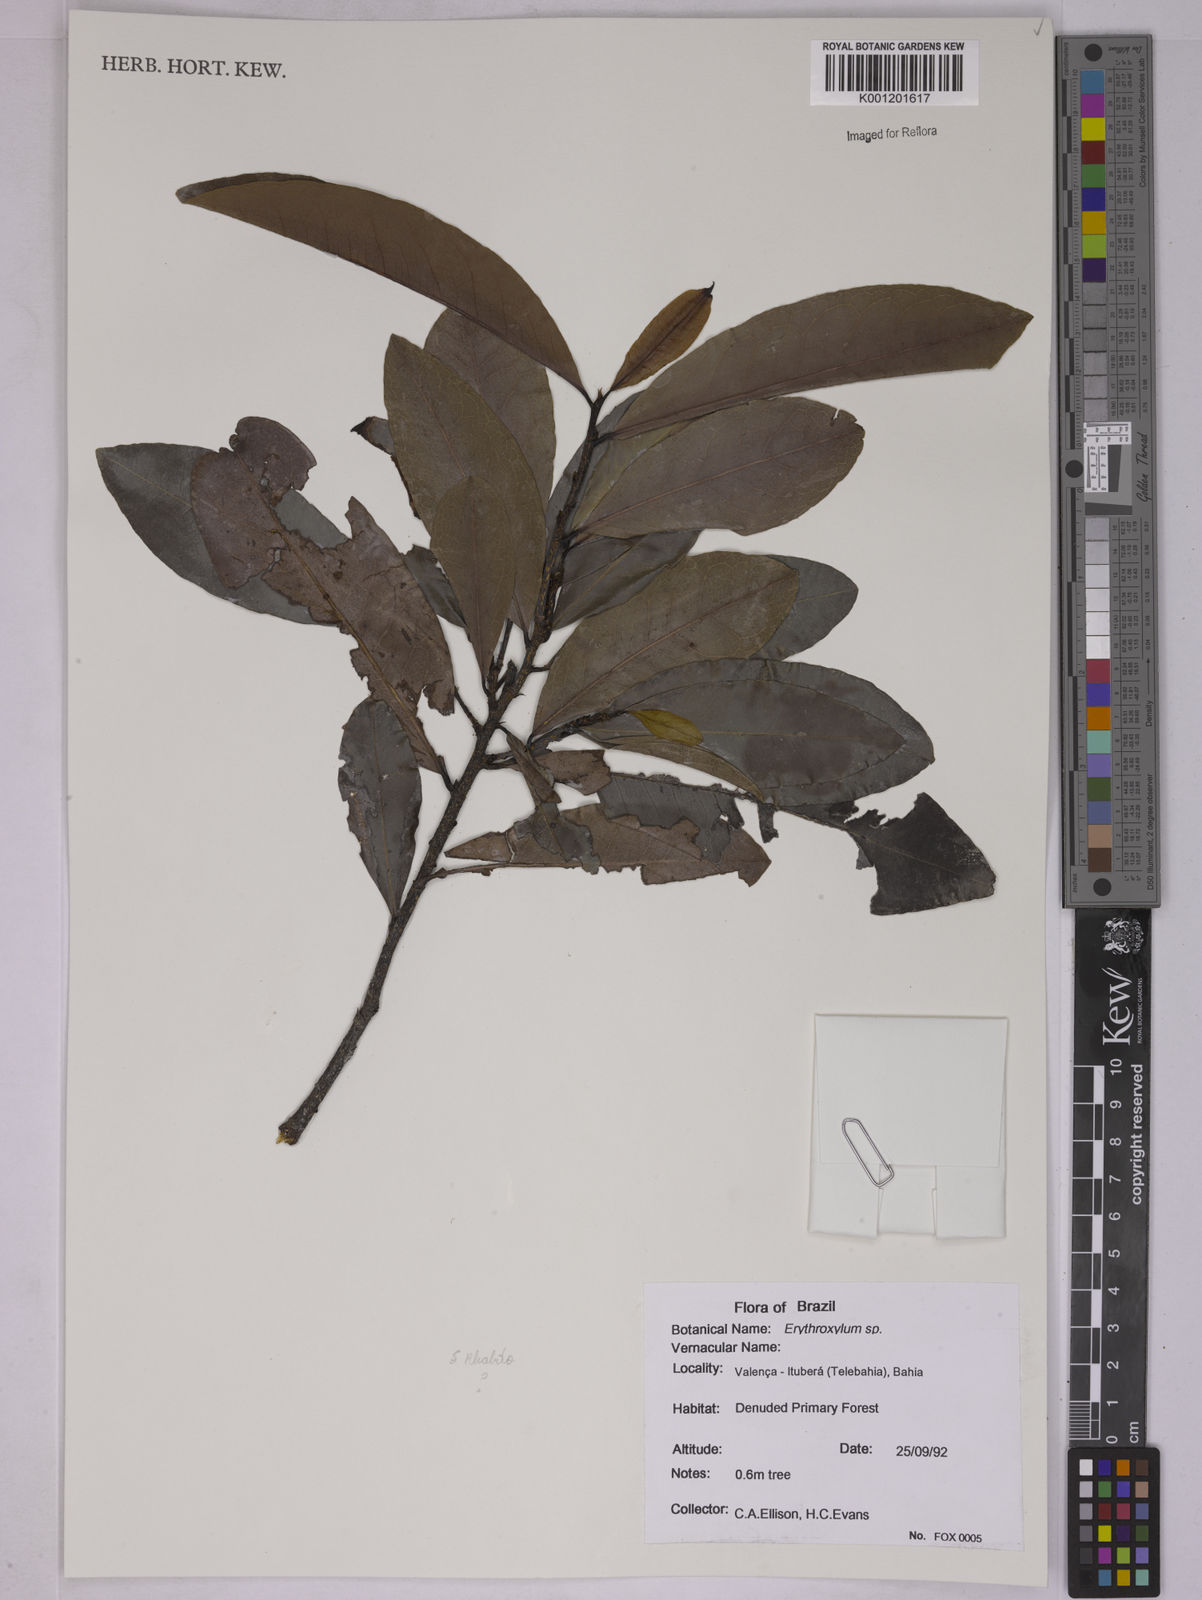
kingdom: Plantae
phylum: Tracheophyta
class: Magnoliopsida
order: Malpighiales
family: Erythroxylaceae
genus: Erythroxylum
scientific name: Erythroxylum
